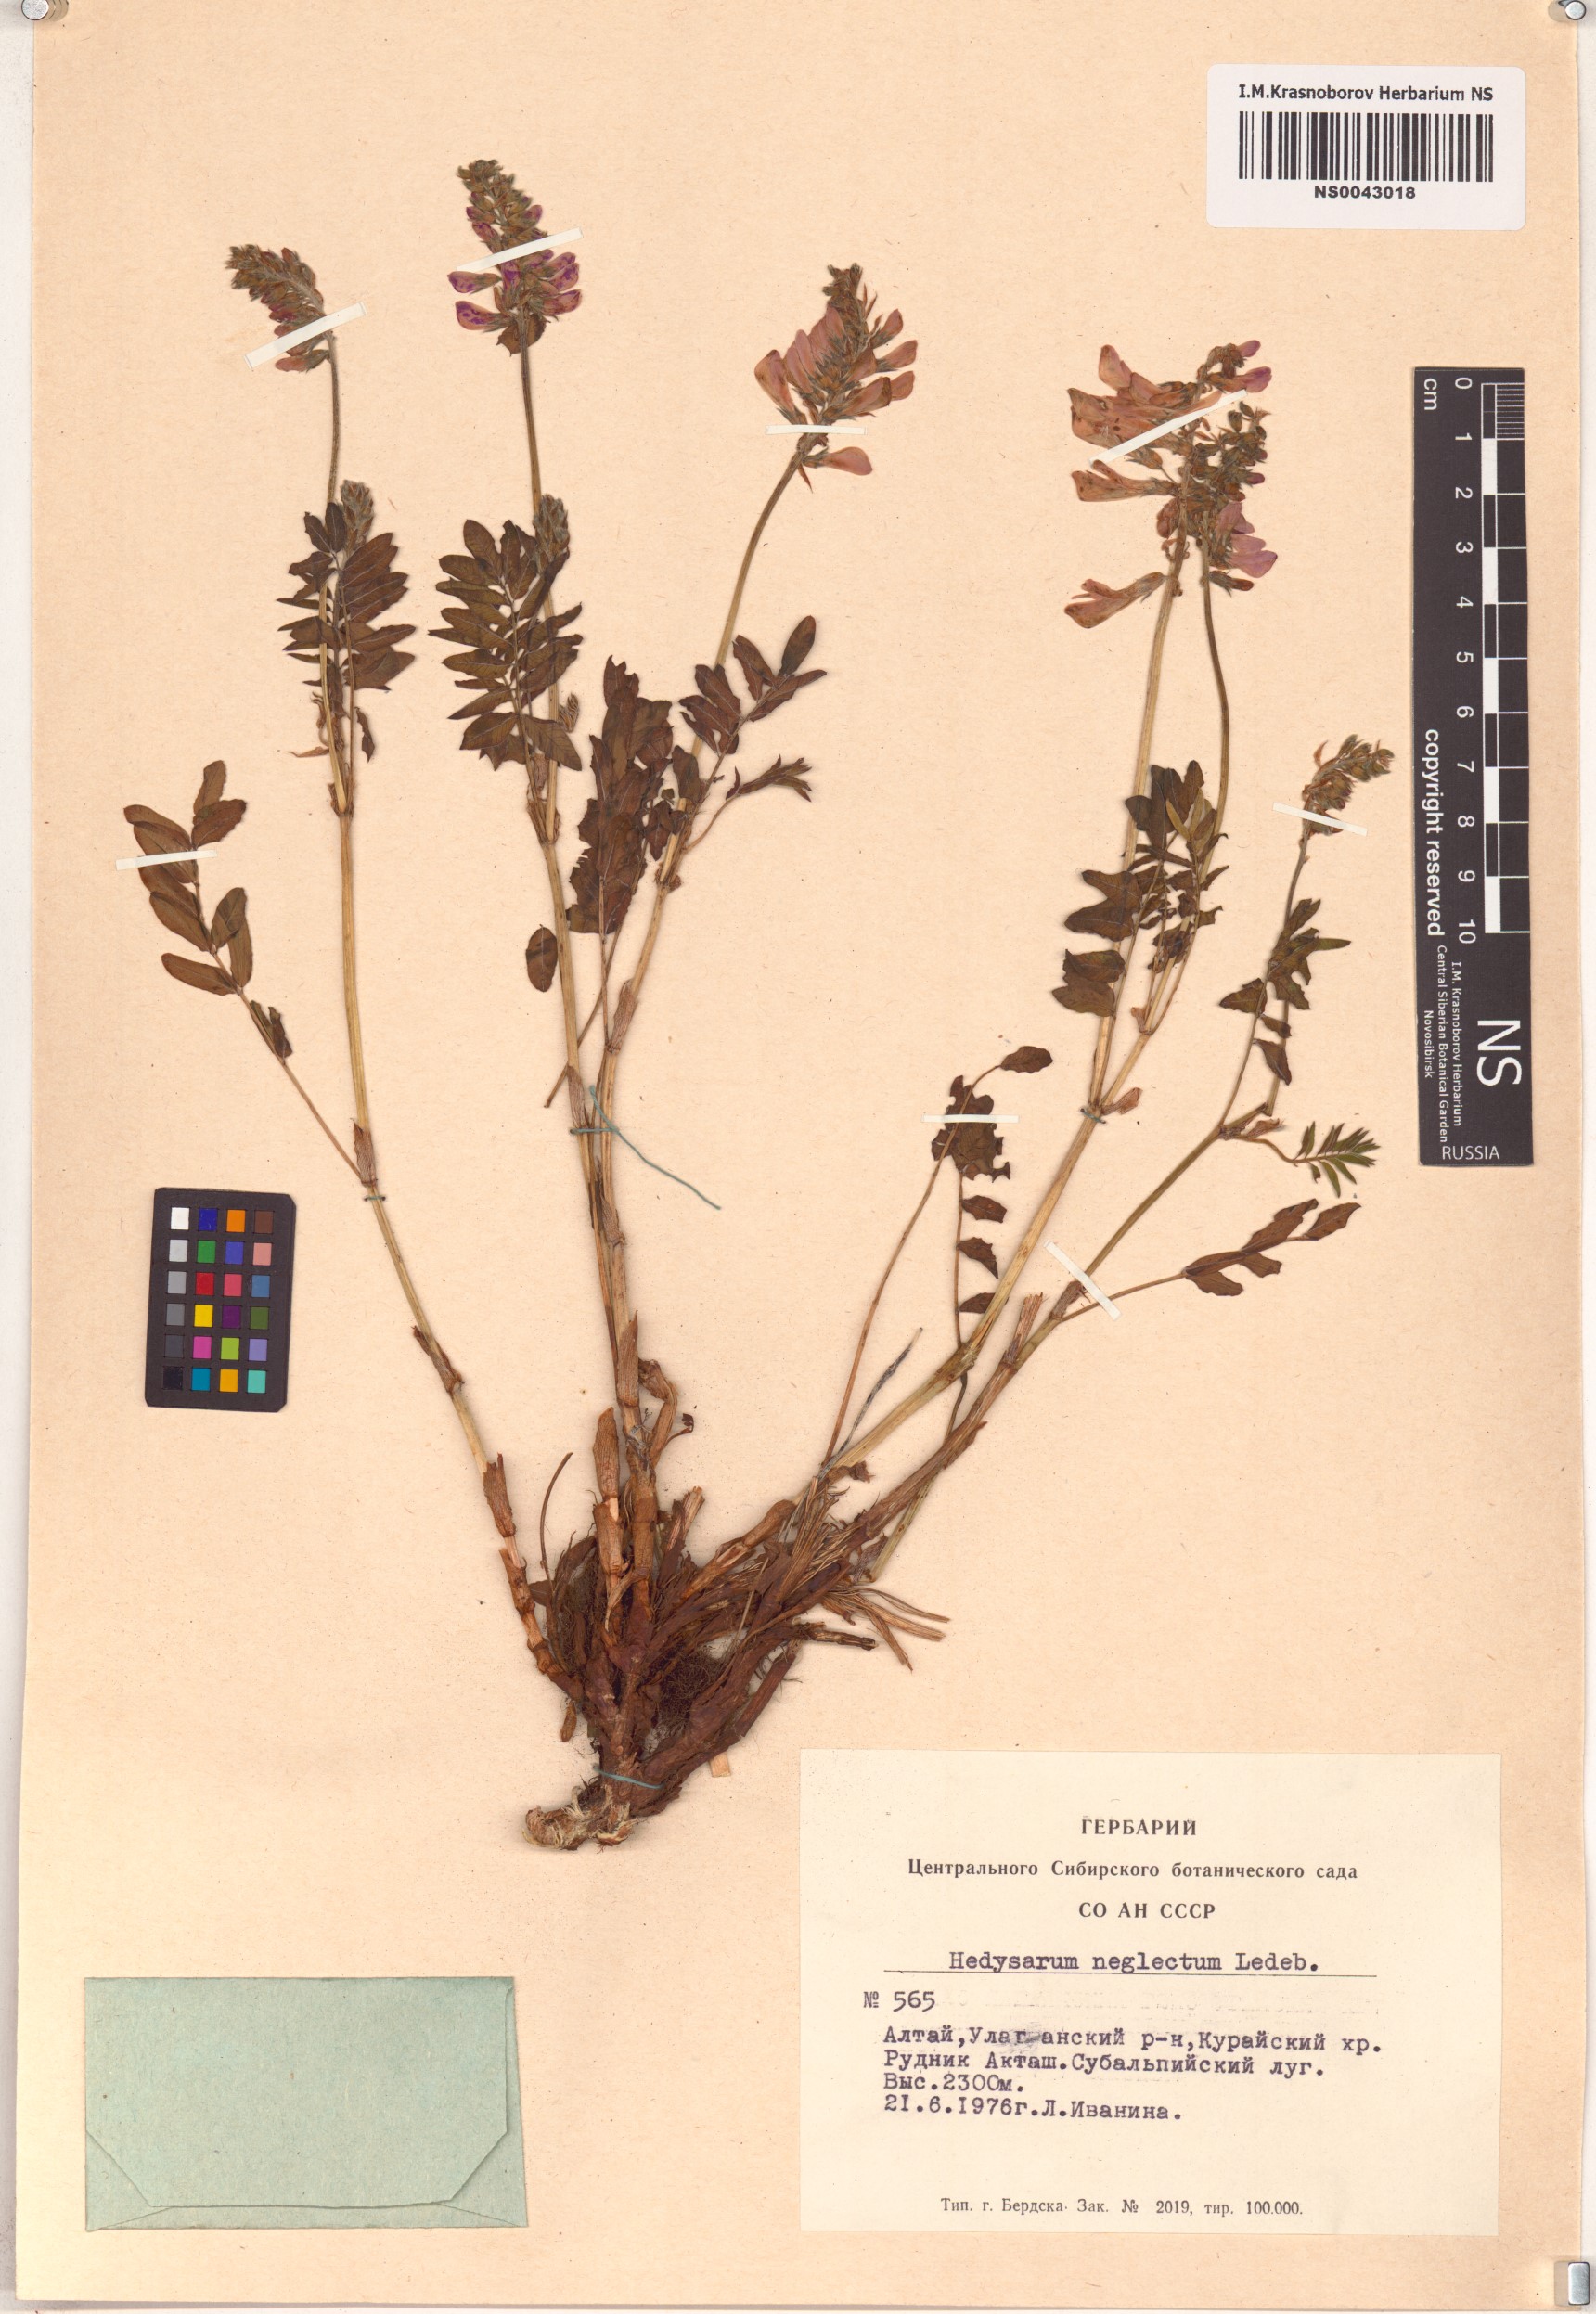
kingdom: Plantae
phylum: Tracheophyta
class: Magnoliopsida
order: Fabales
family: Fabaceae
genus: Hedysarum
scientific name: Hedysarum neglectum
